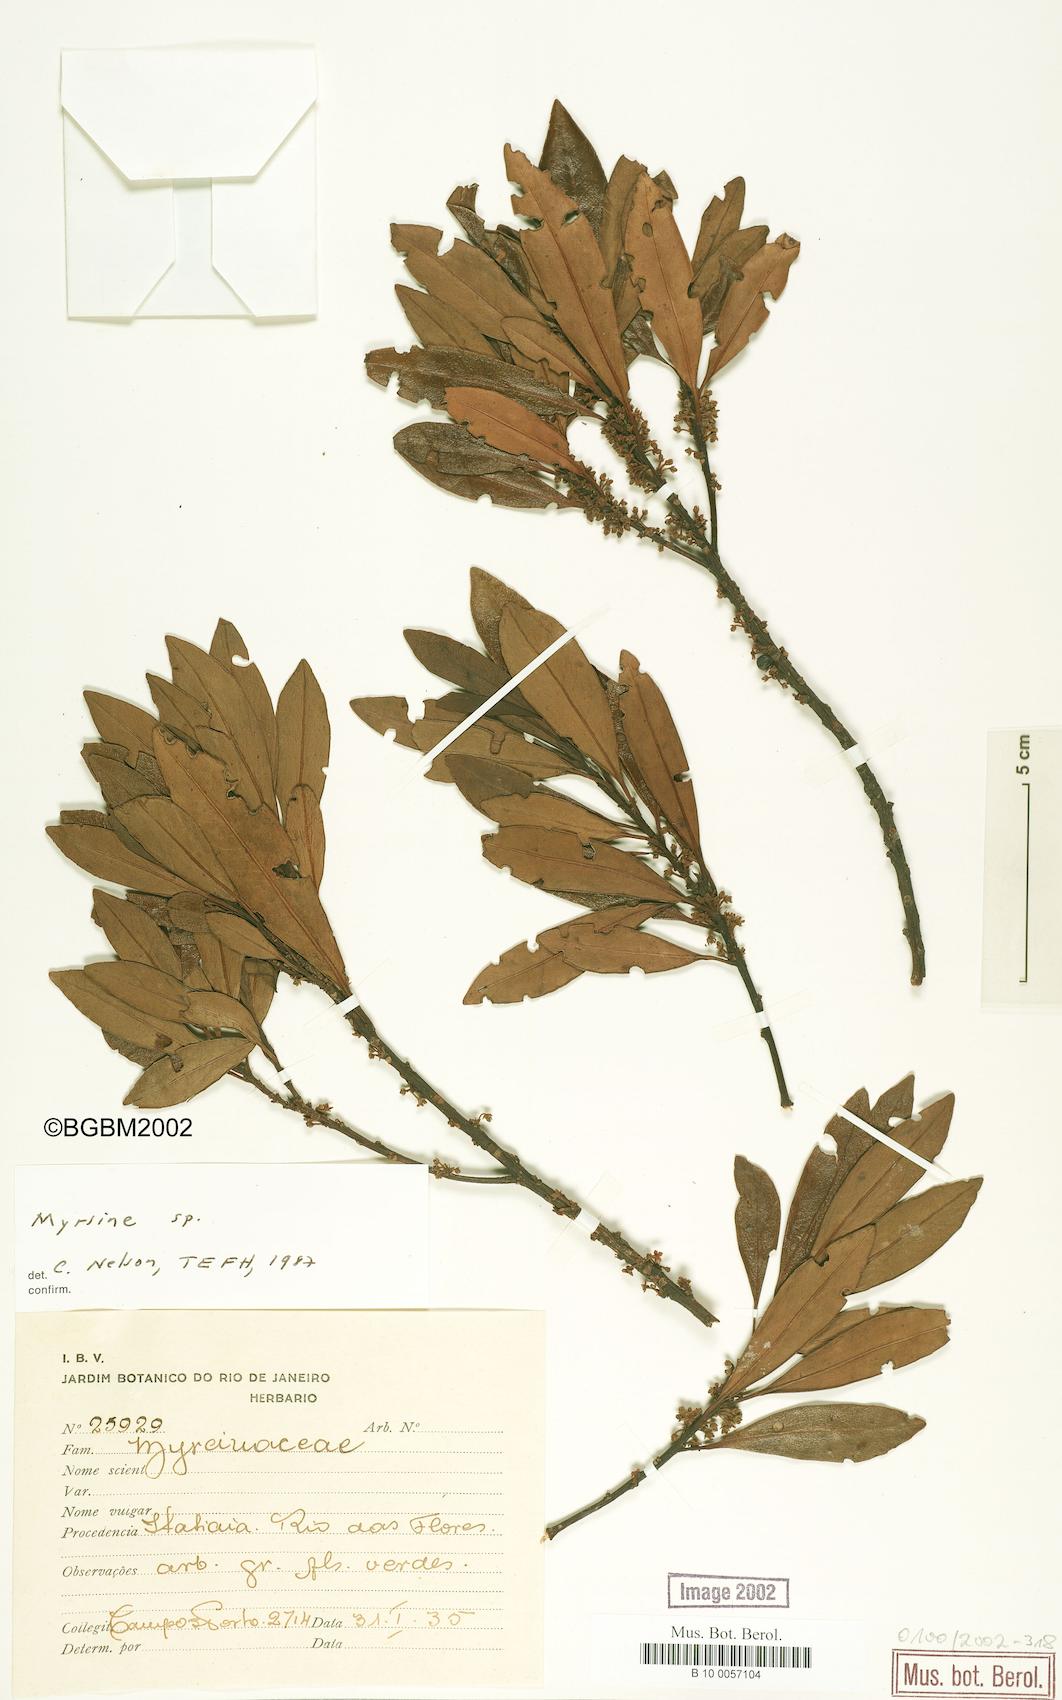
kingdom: Plantae
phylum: Tracheophyta
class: Magnoliopsida
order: Ericales
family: Primulaceae
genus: Myrsine
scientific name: Myrsine
